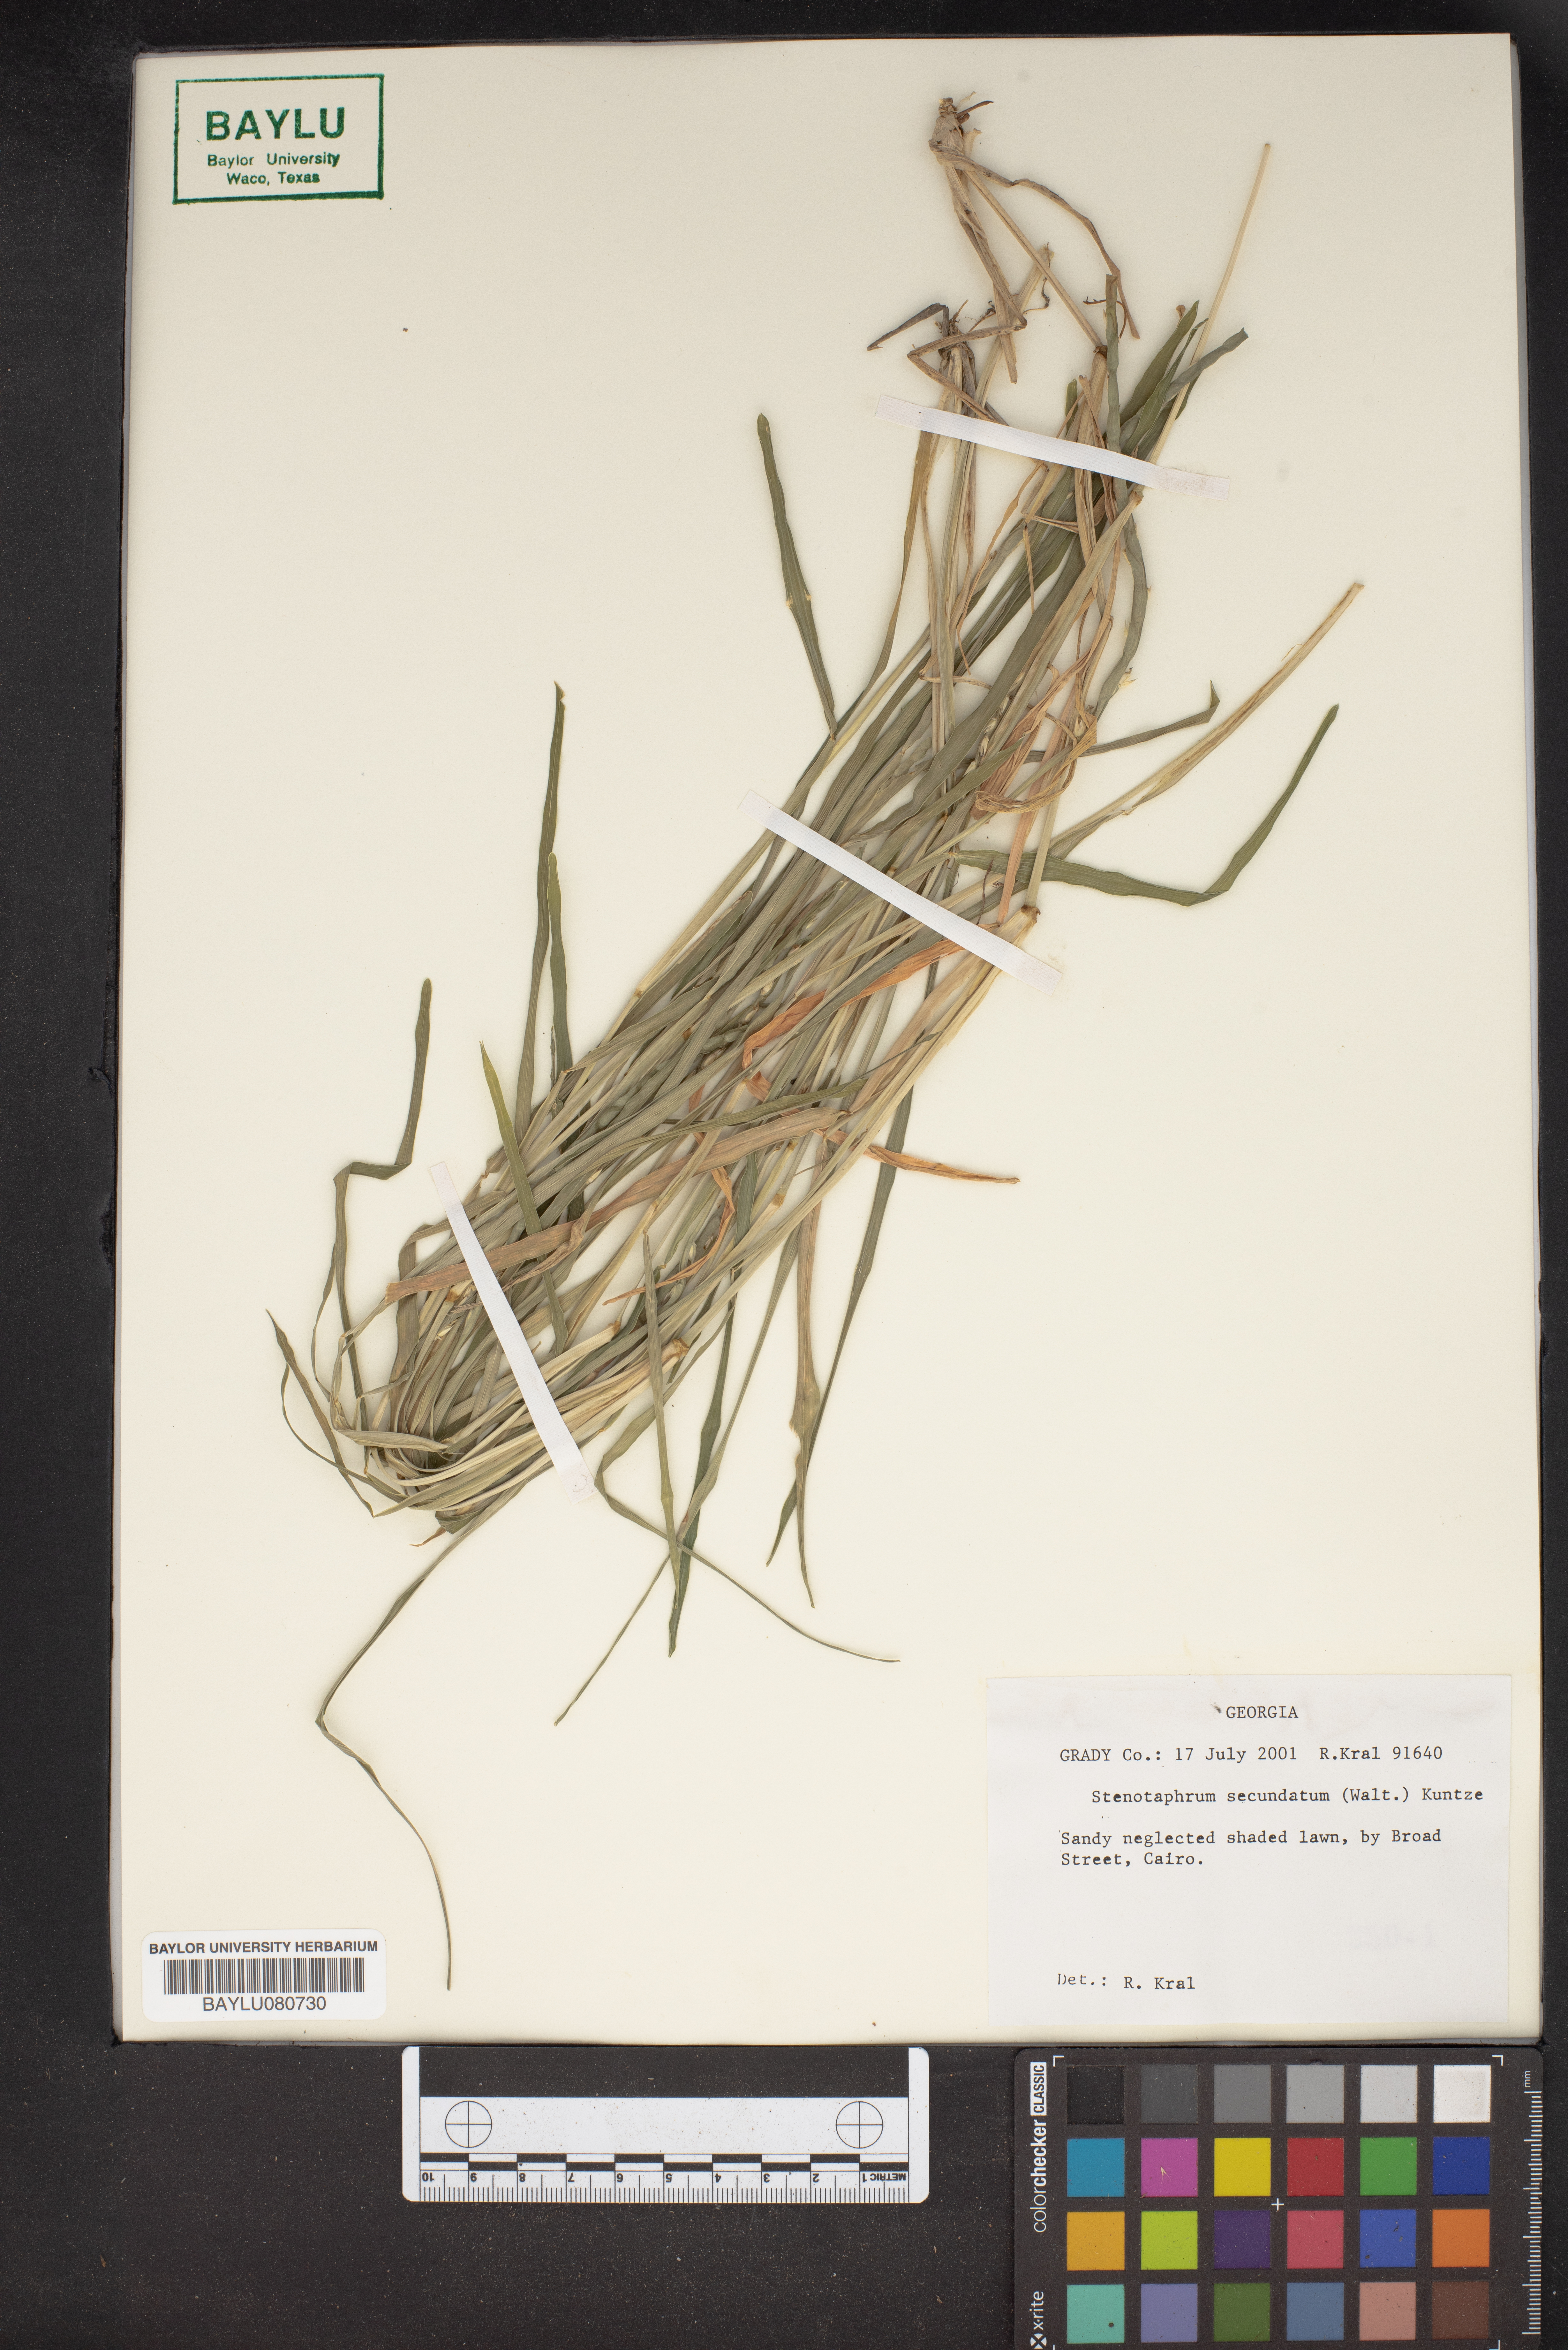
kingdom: Plantae
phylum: Tracheophyta
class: Liliopsida
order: Poales
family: Poaceae
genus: Stenotaphrum
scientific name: Stenotaphrum secundatum
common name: St. augustine grass
